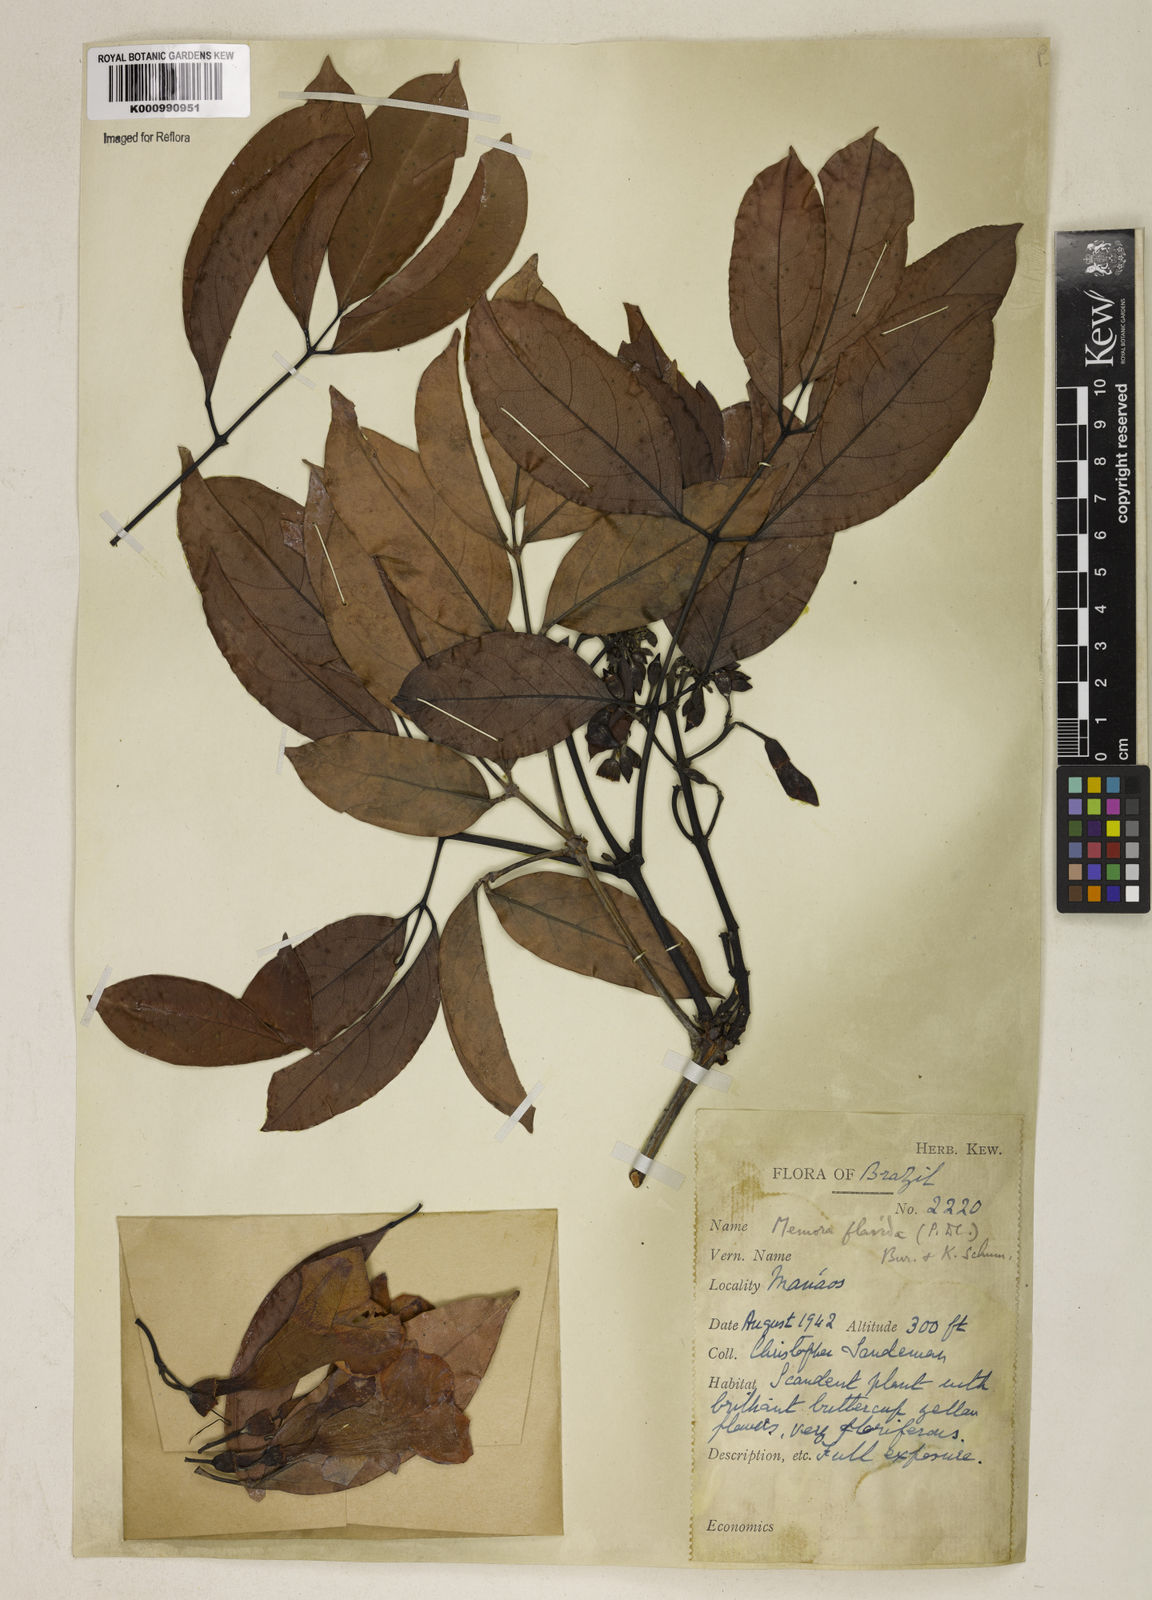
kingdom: Plantae
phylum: Tracheophyta
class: Magnoliopsida
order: Lamiales
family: Bignoniaceae
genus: Adenocalymma
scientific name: Adenocalymma neoflavidum
